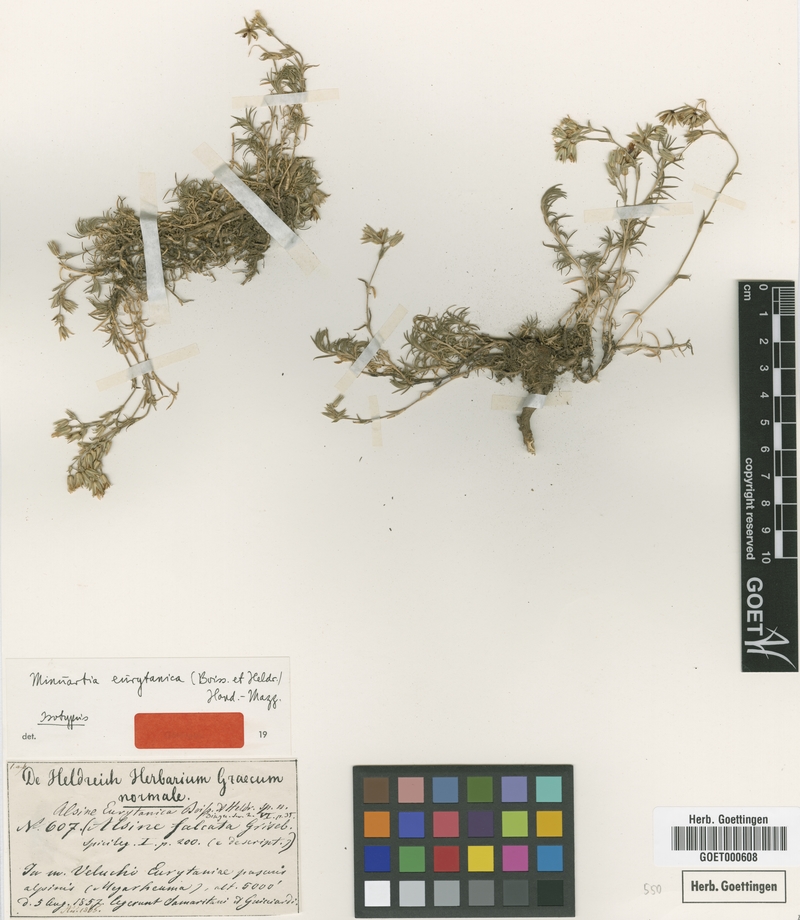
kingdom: Plantae
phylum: Tracheophyta
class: Magnoliopsida
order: Caryophyllales
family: Caryophyllaceae
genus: Minuartia
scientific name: Minuartia eurytanica
